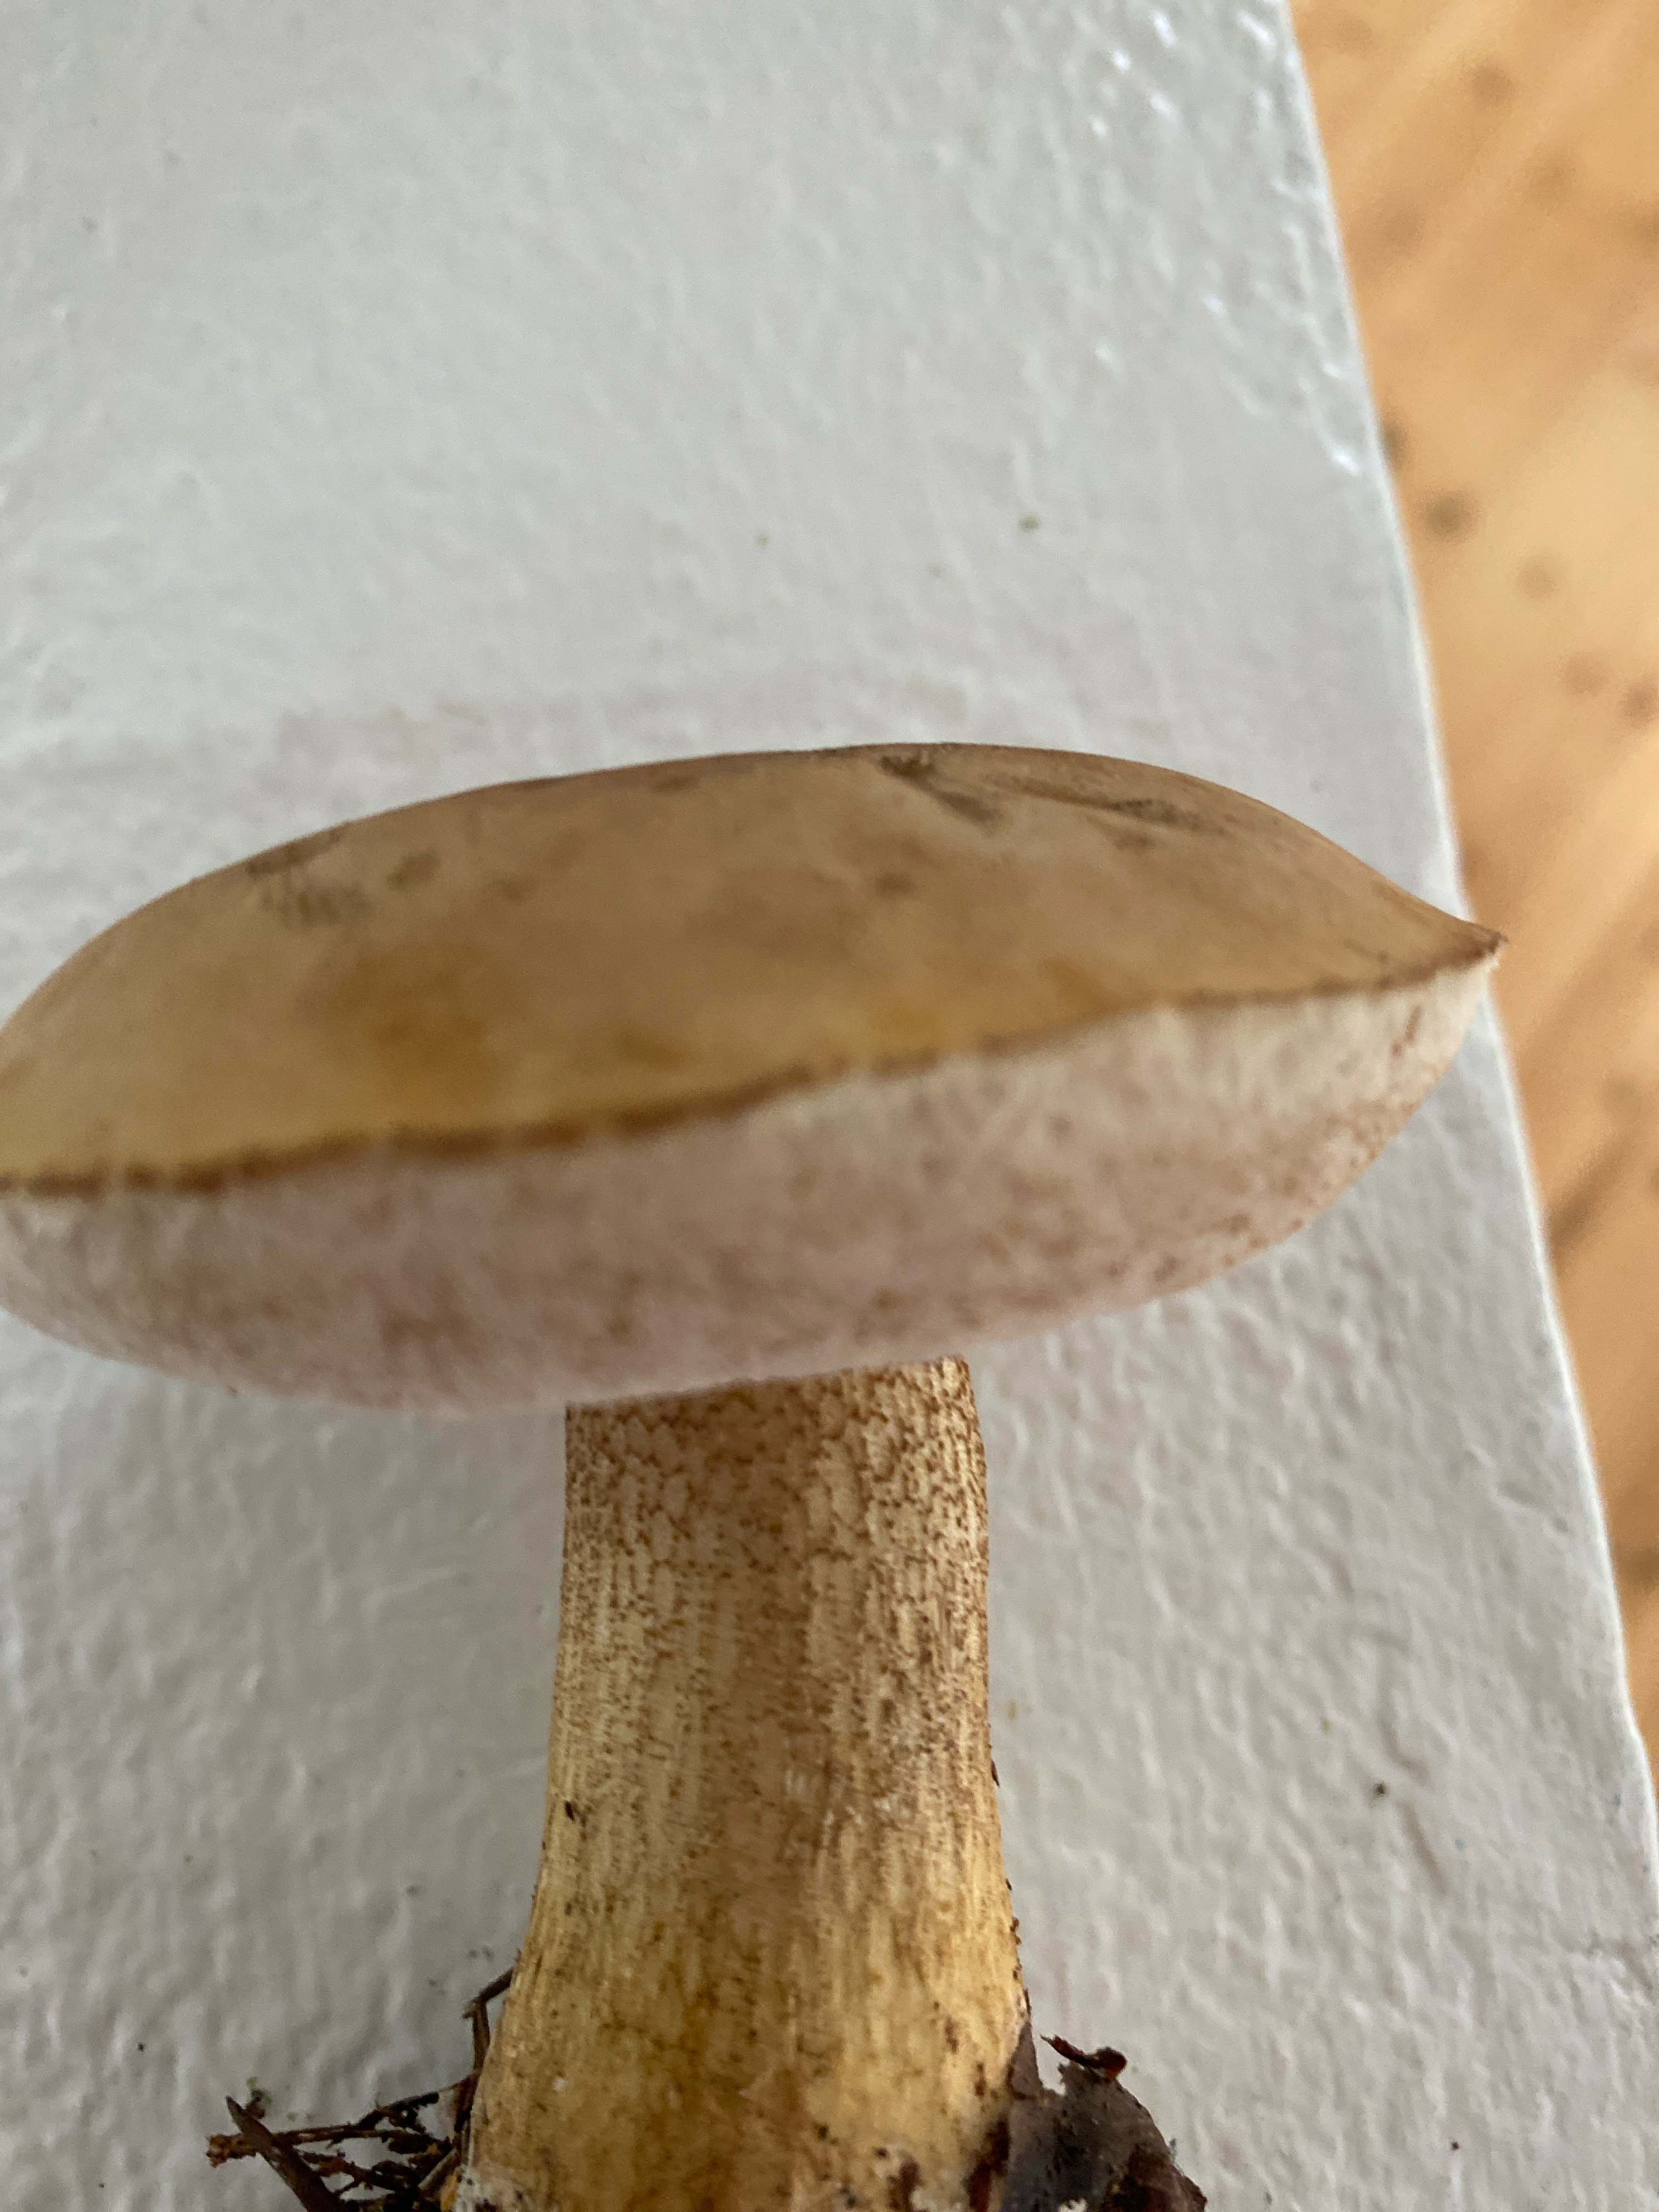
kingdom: Fungi
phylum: Basidiomycota
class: Agaricomycetes
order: Boletales
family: Boletaceae
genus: Tylopilus
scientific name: Tylopilus felleus
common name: galderørhat
